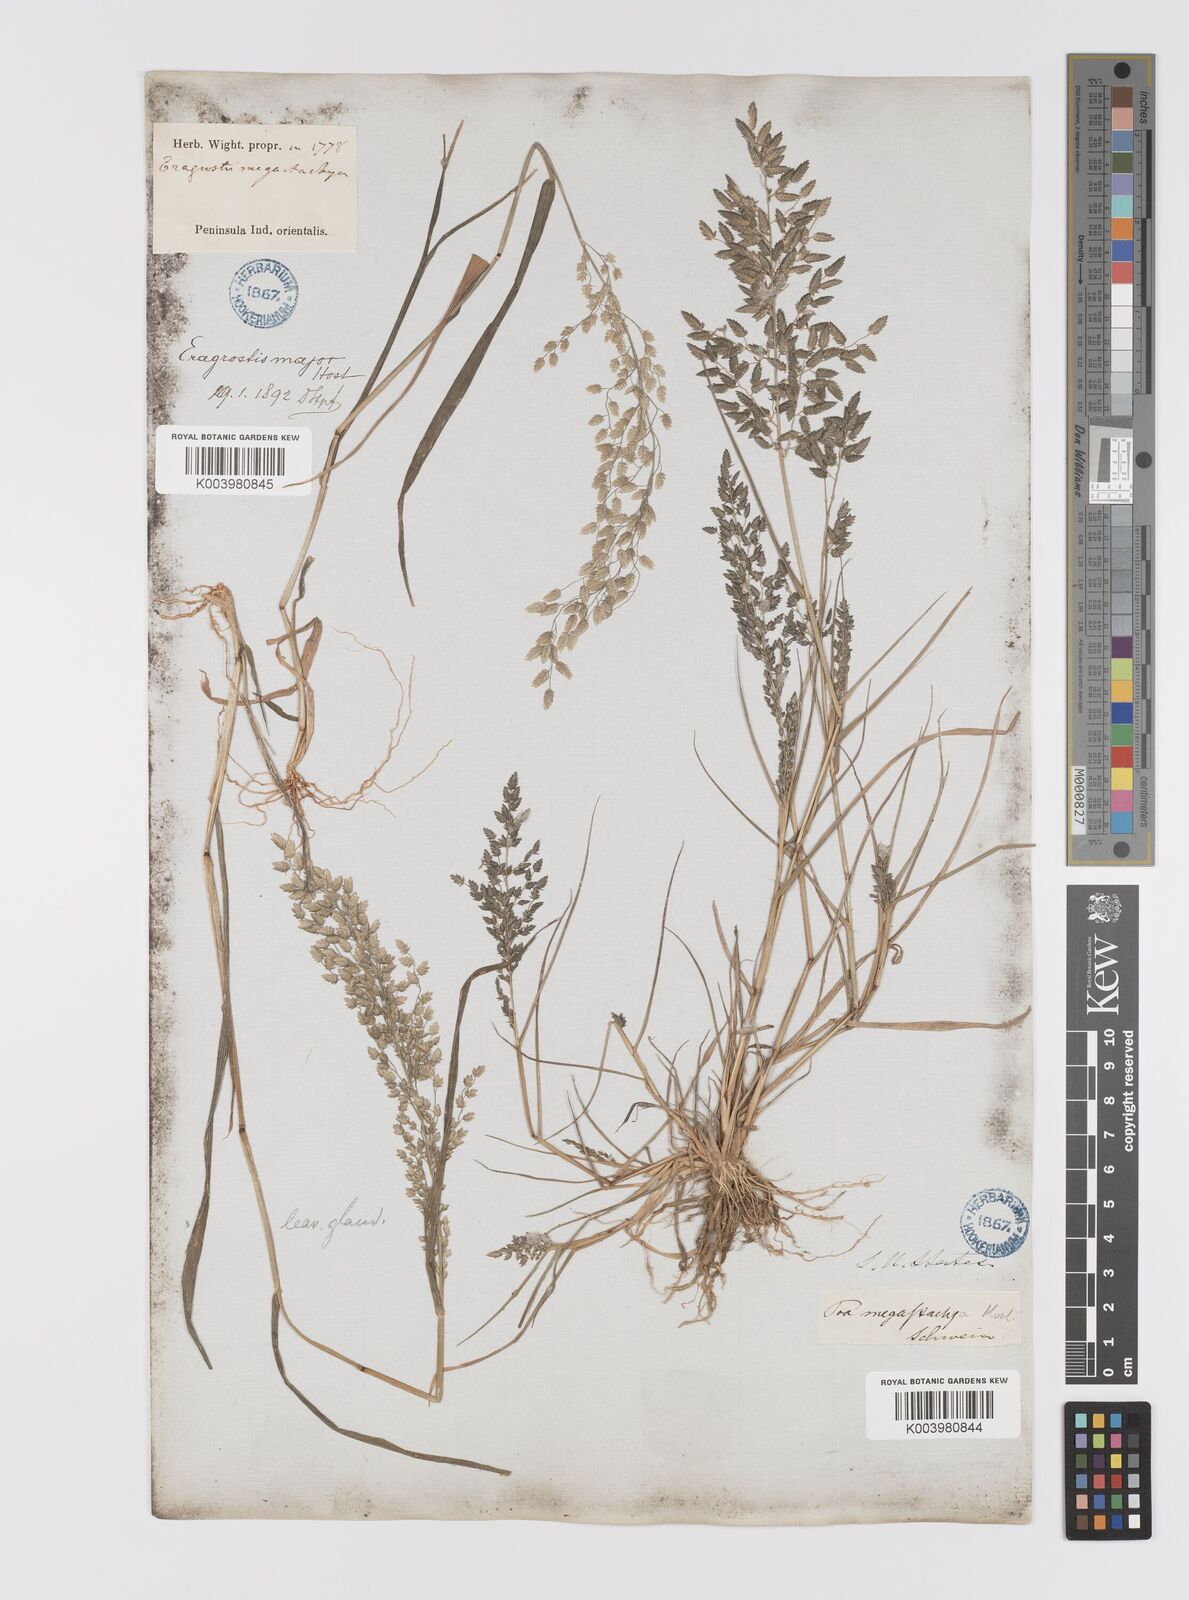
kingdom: Plantae
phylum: Tracheophyta
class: Liliopsida
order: Poales
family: Poaceae
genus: Eragrostis
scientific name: Eragrostis cilianensis
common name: Stinkgrass
